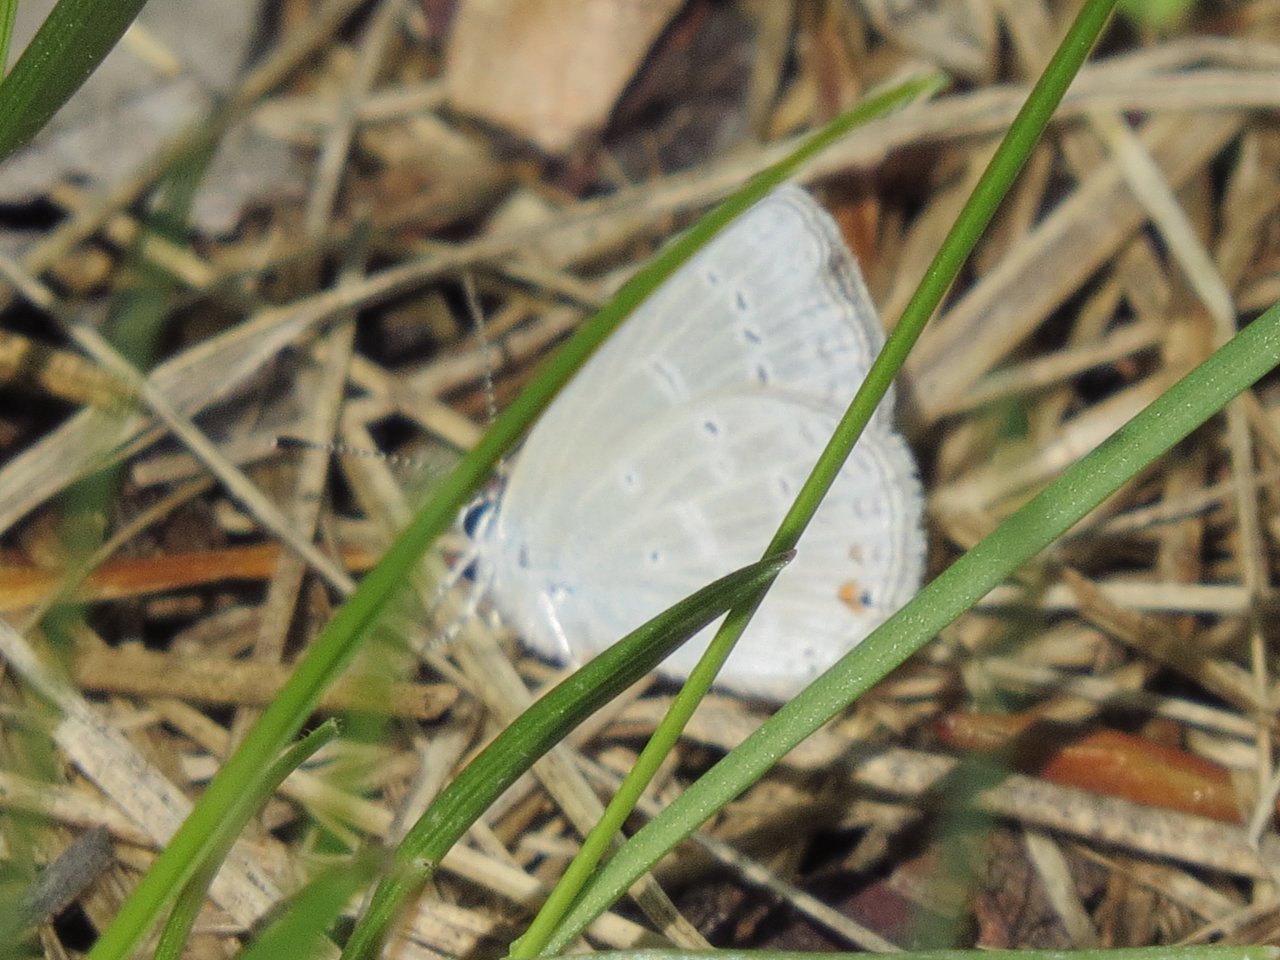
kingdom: Animalia
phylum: Arthropoda
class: Insecta
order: Lepidoptera
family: Lycaenidae
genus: Elkalyce
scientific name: Elkalyce amyntula
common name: Western Tailed-Blue
